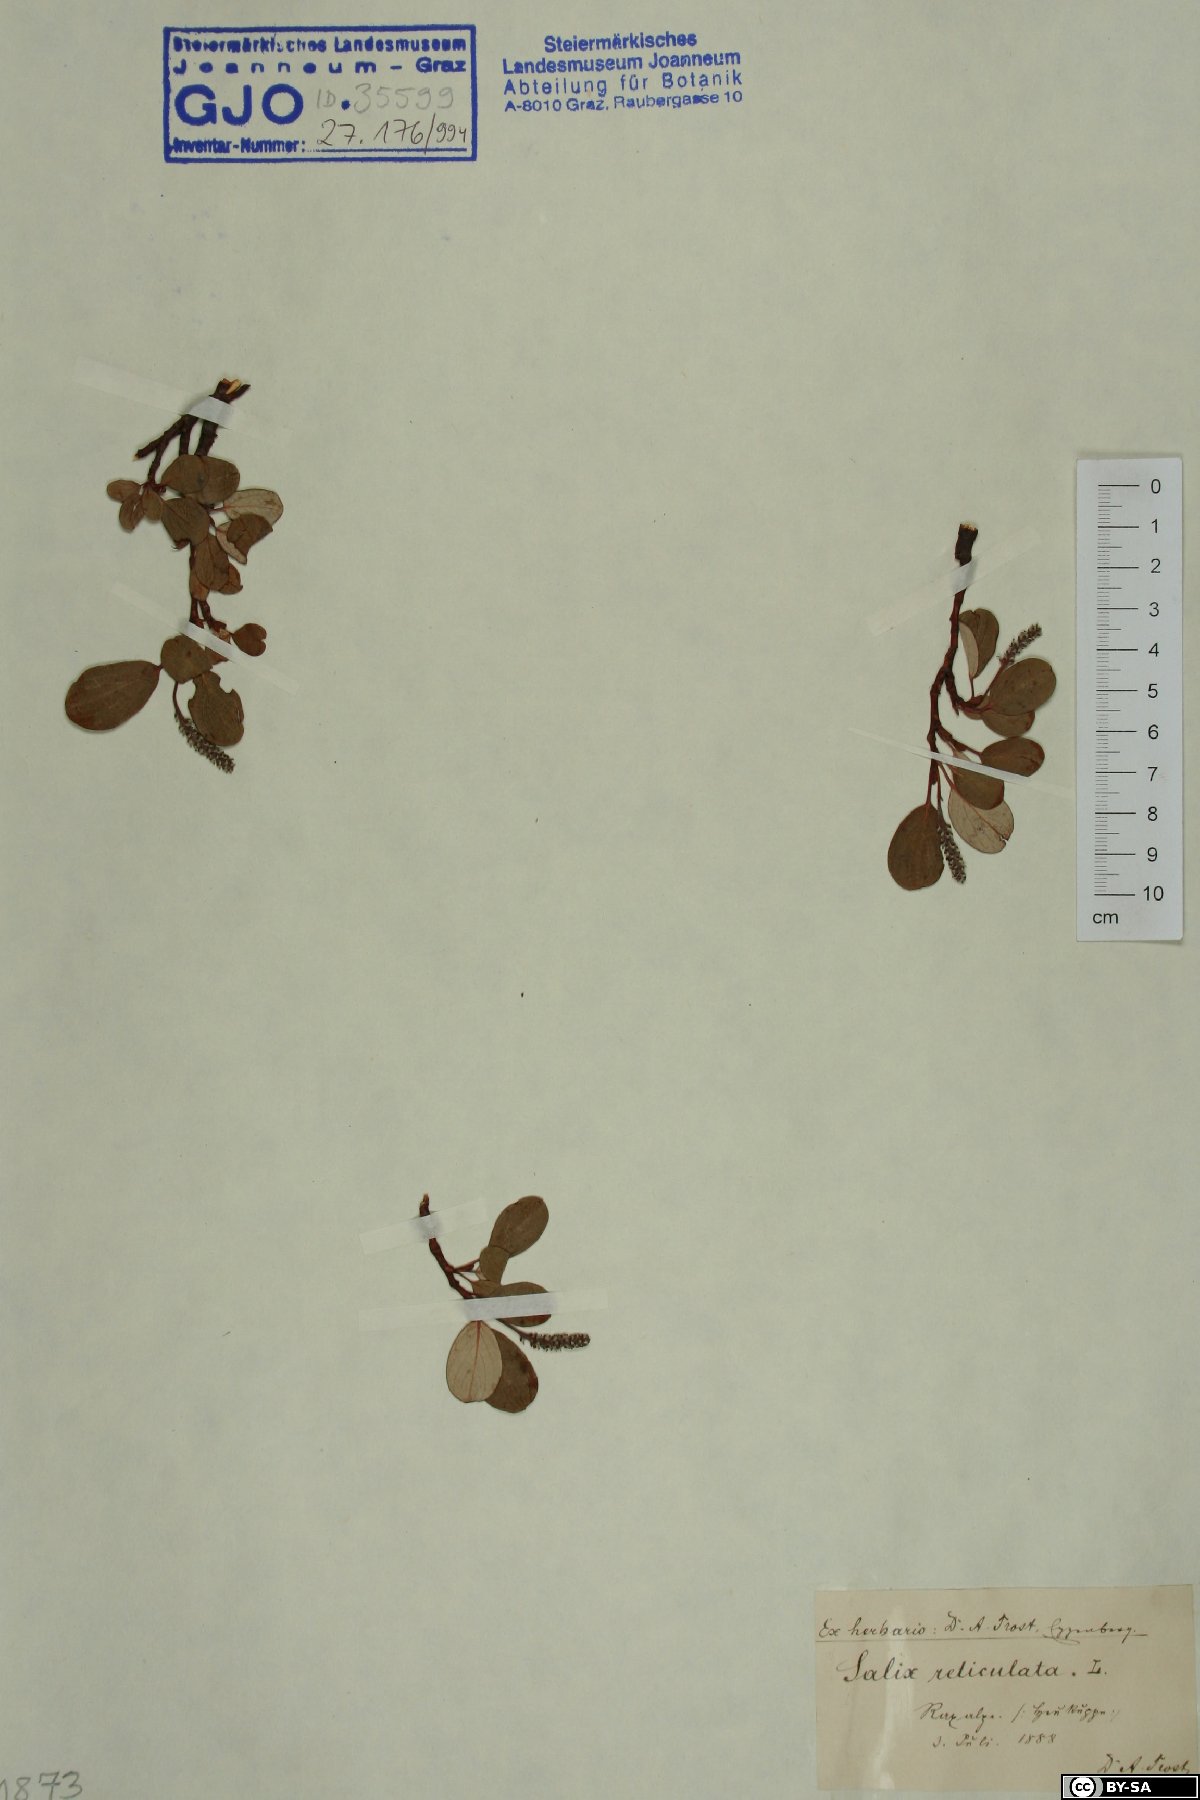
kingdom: Plantae
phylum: Tracheophyta
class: Magnoliopsida
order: Malpighiales
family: Salicaceae
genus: Salix
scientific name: Salix reticulata
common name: Net-leaved willow
